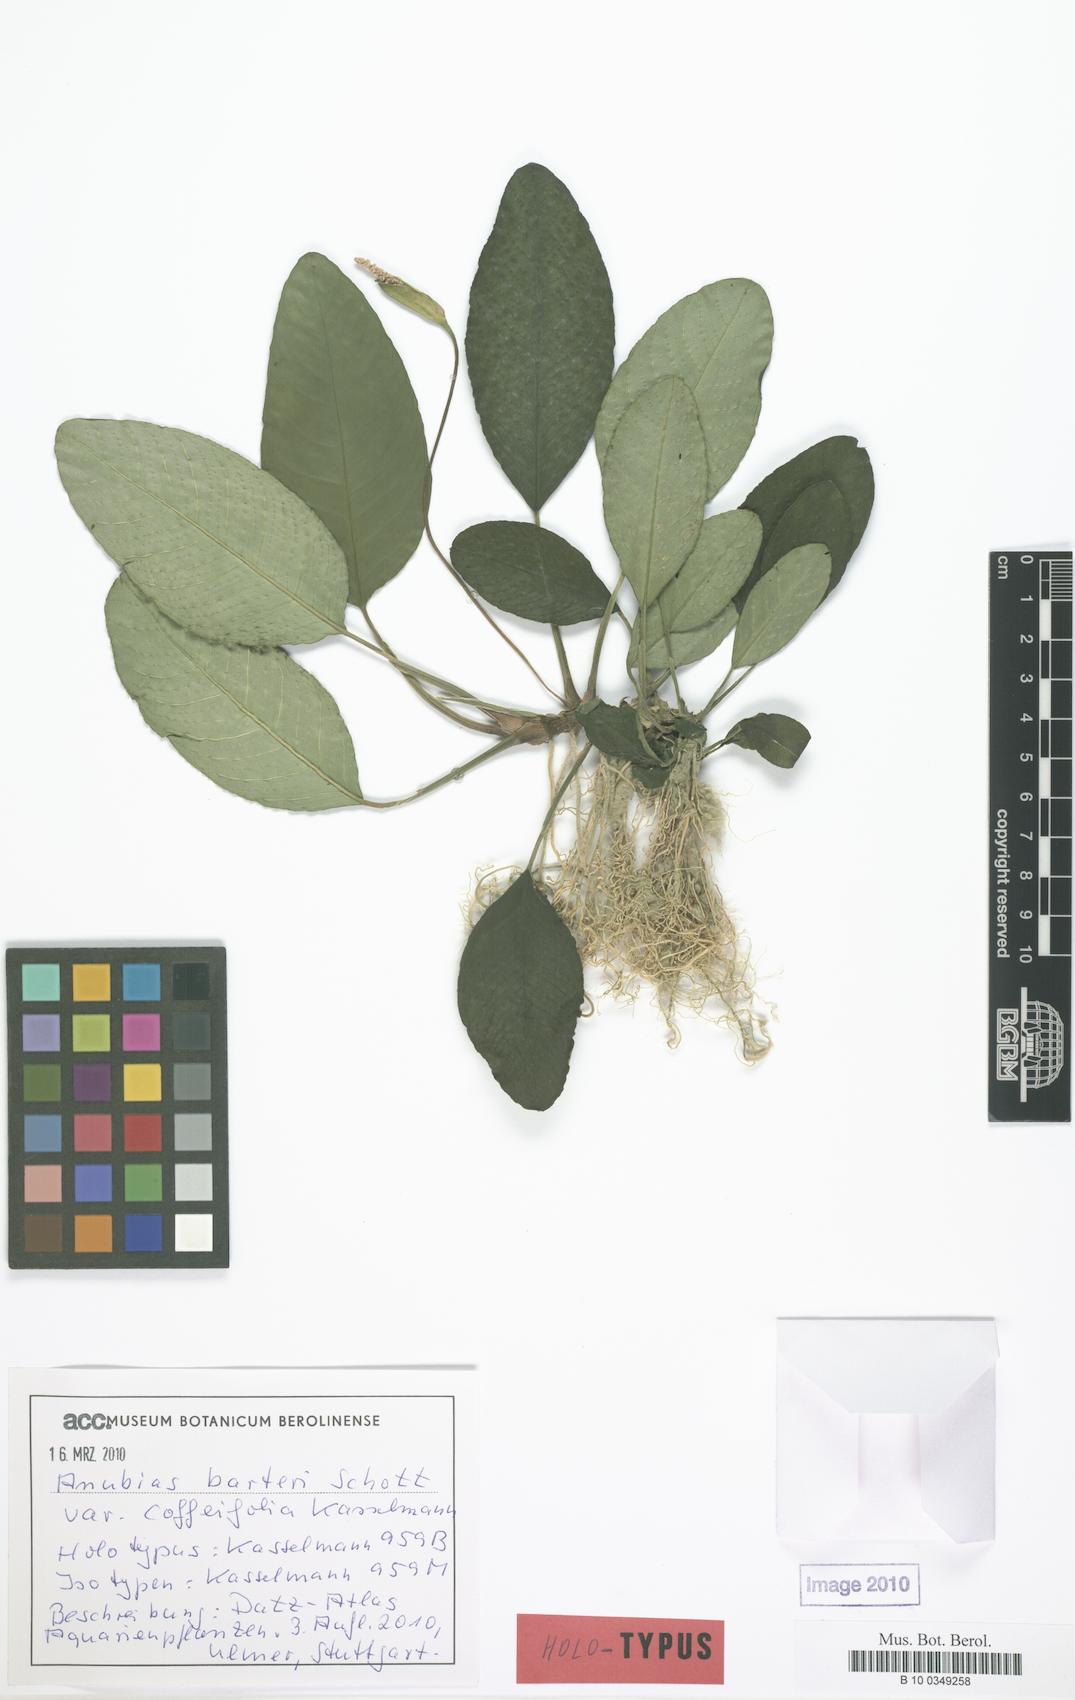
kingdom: Plantae
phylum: Tracheophyta
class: Liliopsida
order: Alismatales
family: Araceae
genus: Anubias
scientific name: Anubias barteri
